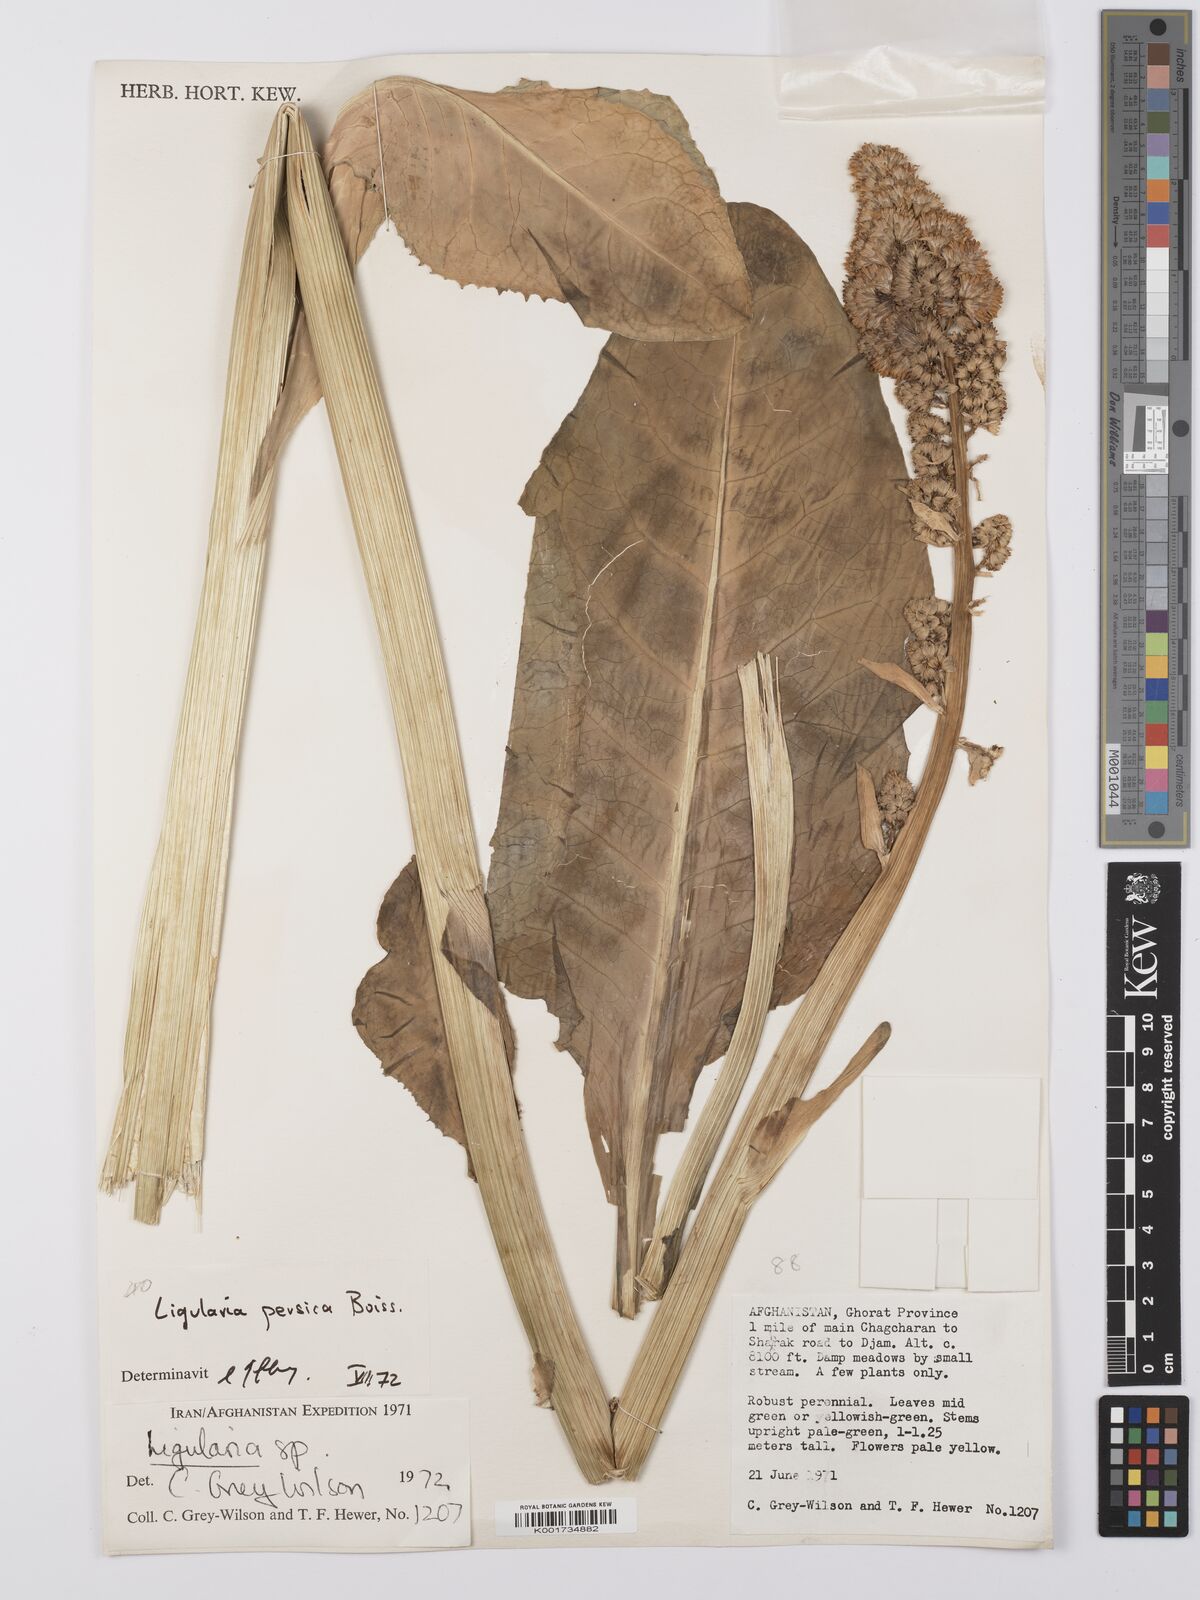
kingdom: Plantae
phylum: Tracheophyta
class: Magnoliopsida
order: Asterales
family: Asteraceae
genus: Ligularia
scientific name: Ligularia afghanica
